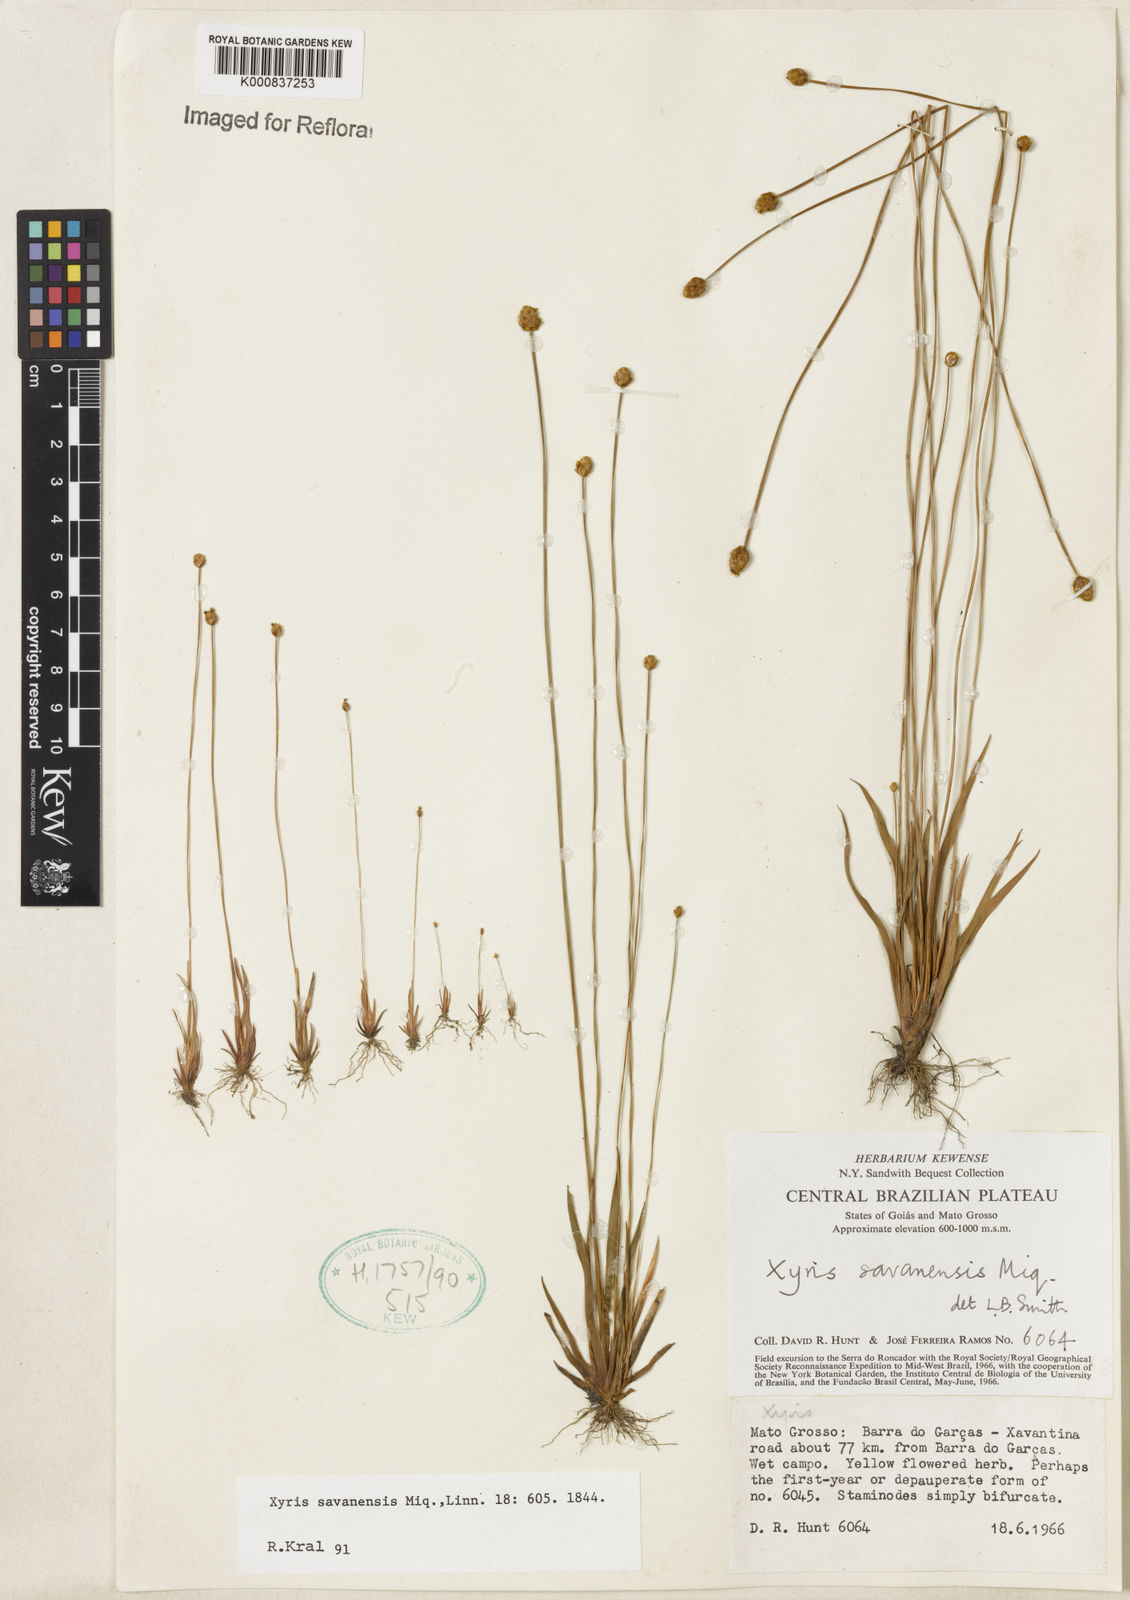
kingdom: Plantae
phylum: Tracheophyta
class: Liliopsida
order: Poales
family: Xyridaceae
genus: Xyris
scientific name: Xyris savanensis
